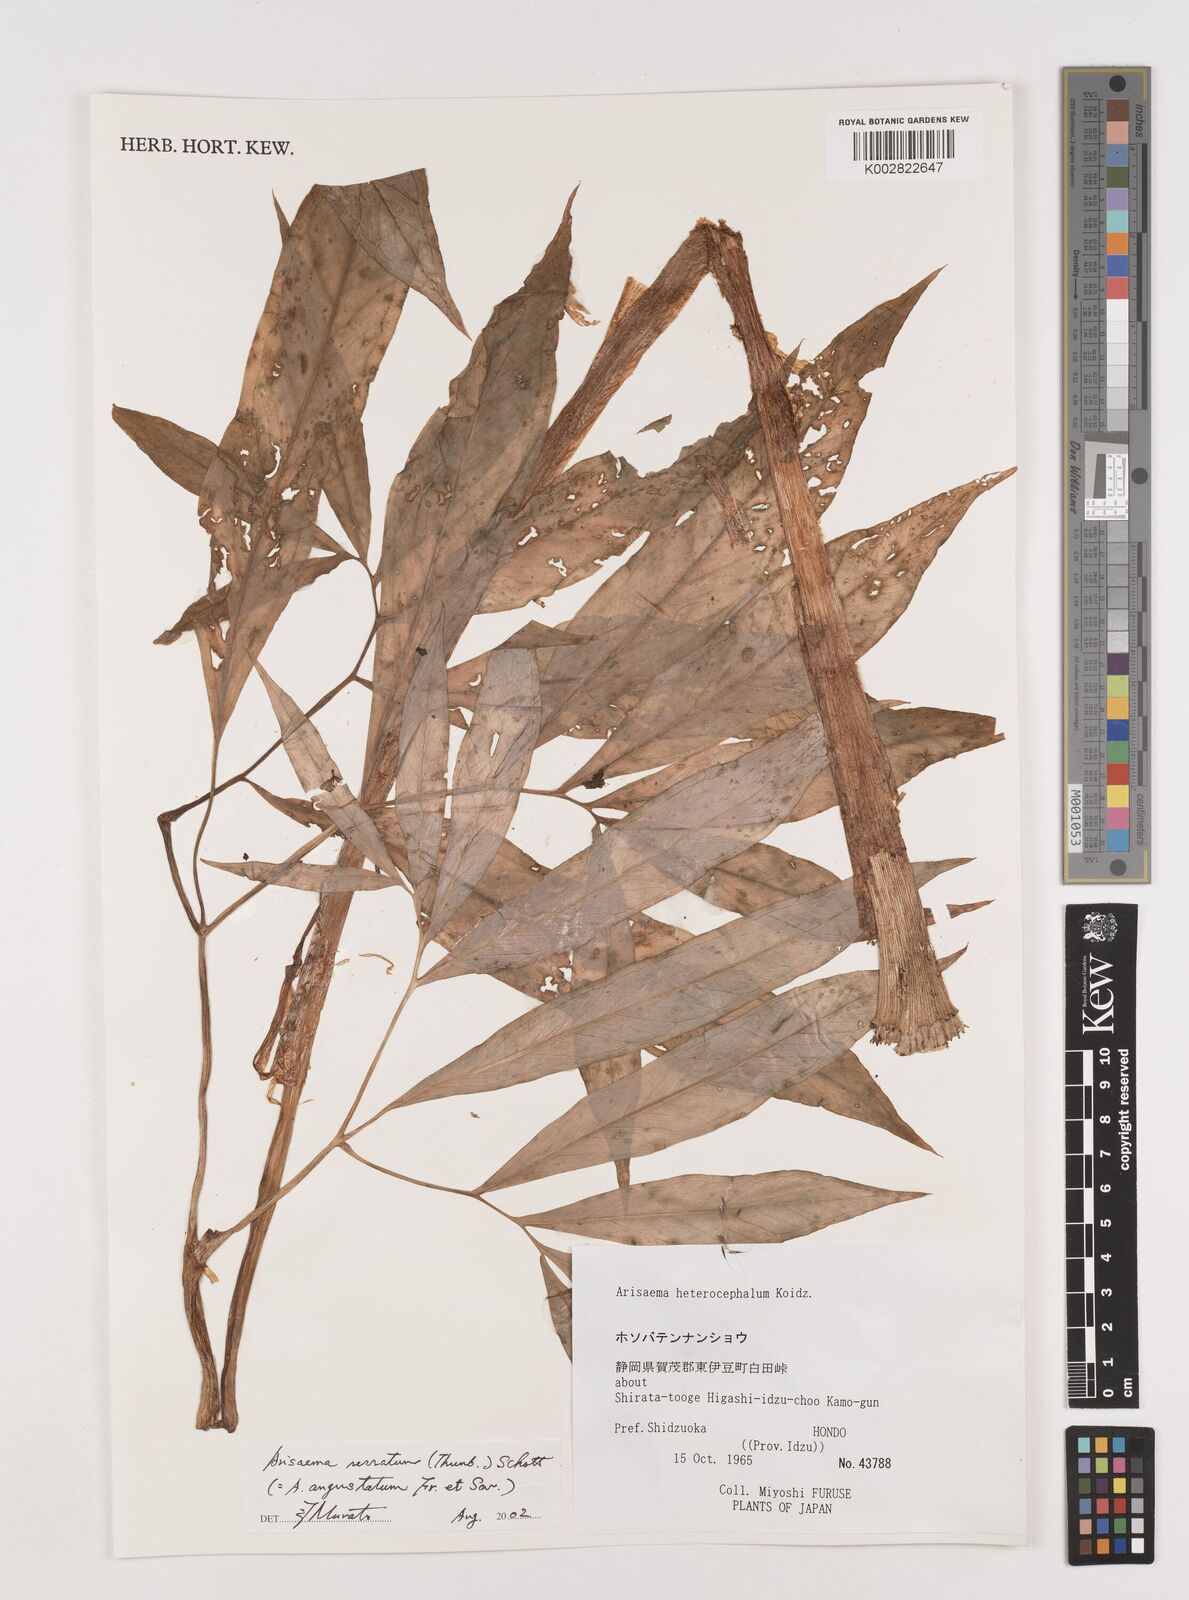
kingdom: Plantae
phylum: Tracheophyta
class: Liliopsida
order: Alismatales
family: Araceae
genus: Arisaema
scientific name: Arisaema serratum
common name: Japanese arisaema
